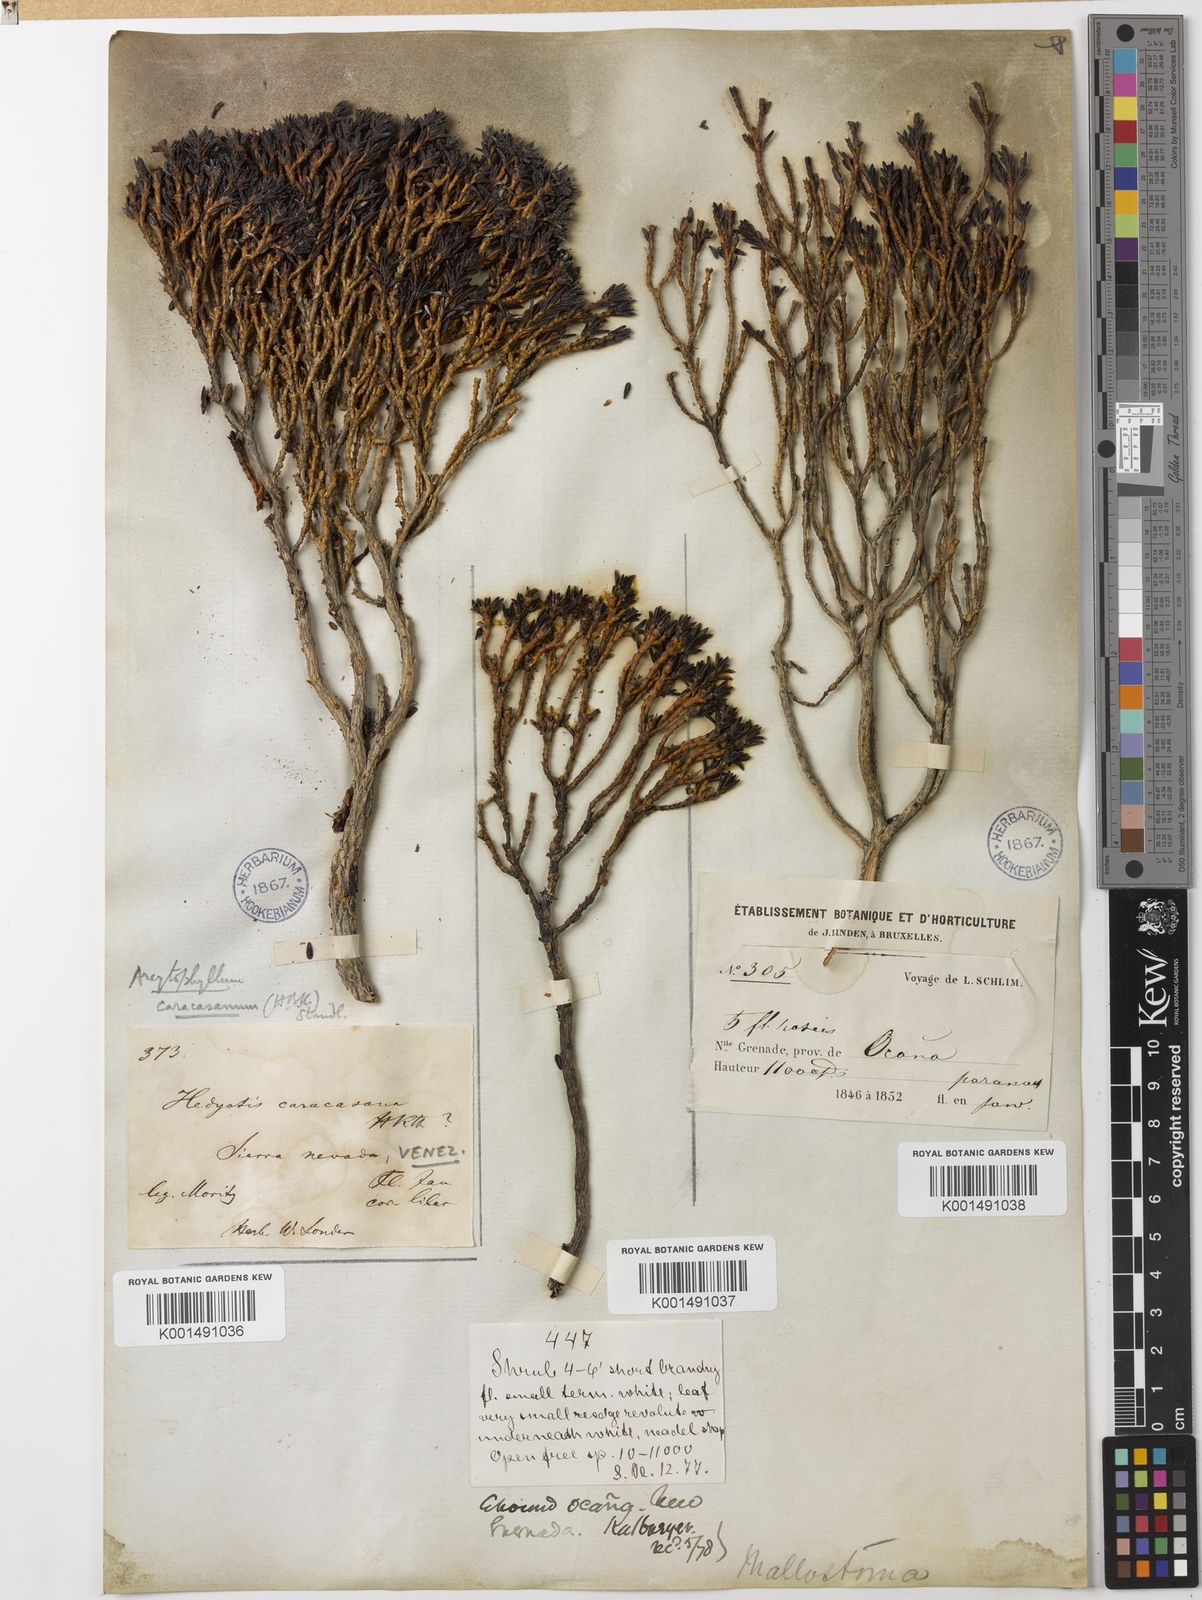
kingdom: Plantae
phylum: Tracheophyta
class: Magnoliopsida
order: Gentianales
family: Rubiaceae
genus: Arcytophyllum
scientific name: Arcytophyllum nitidum
